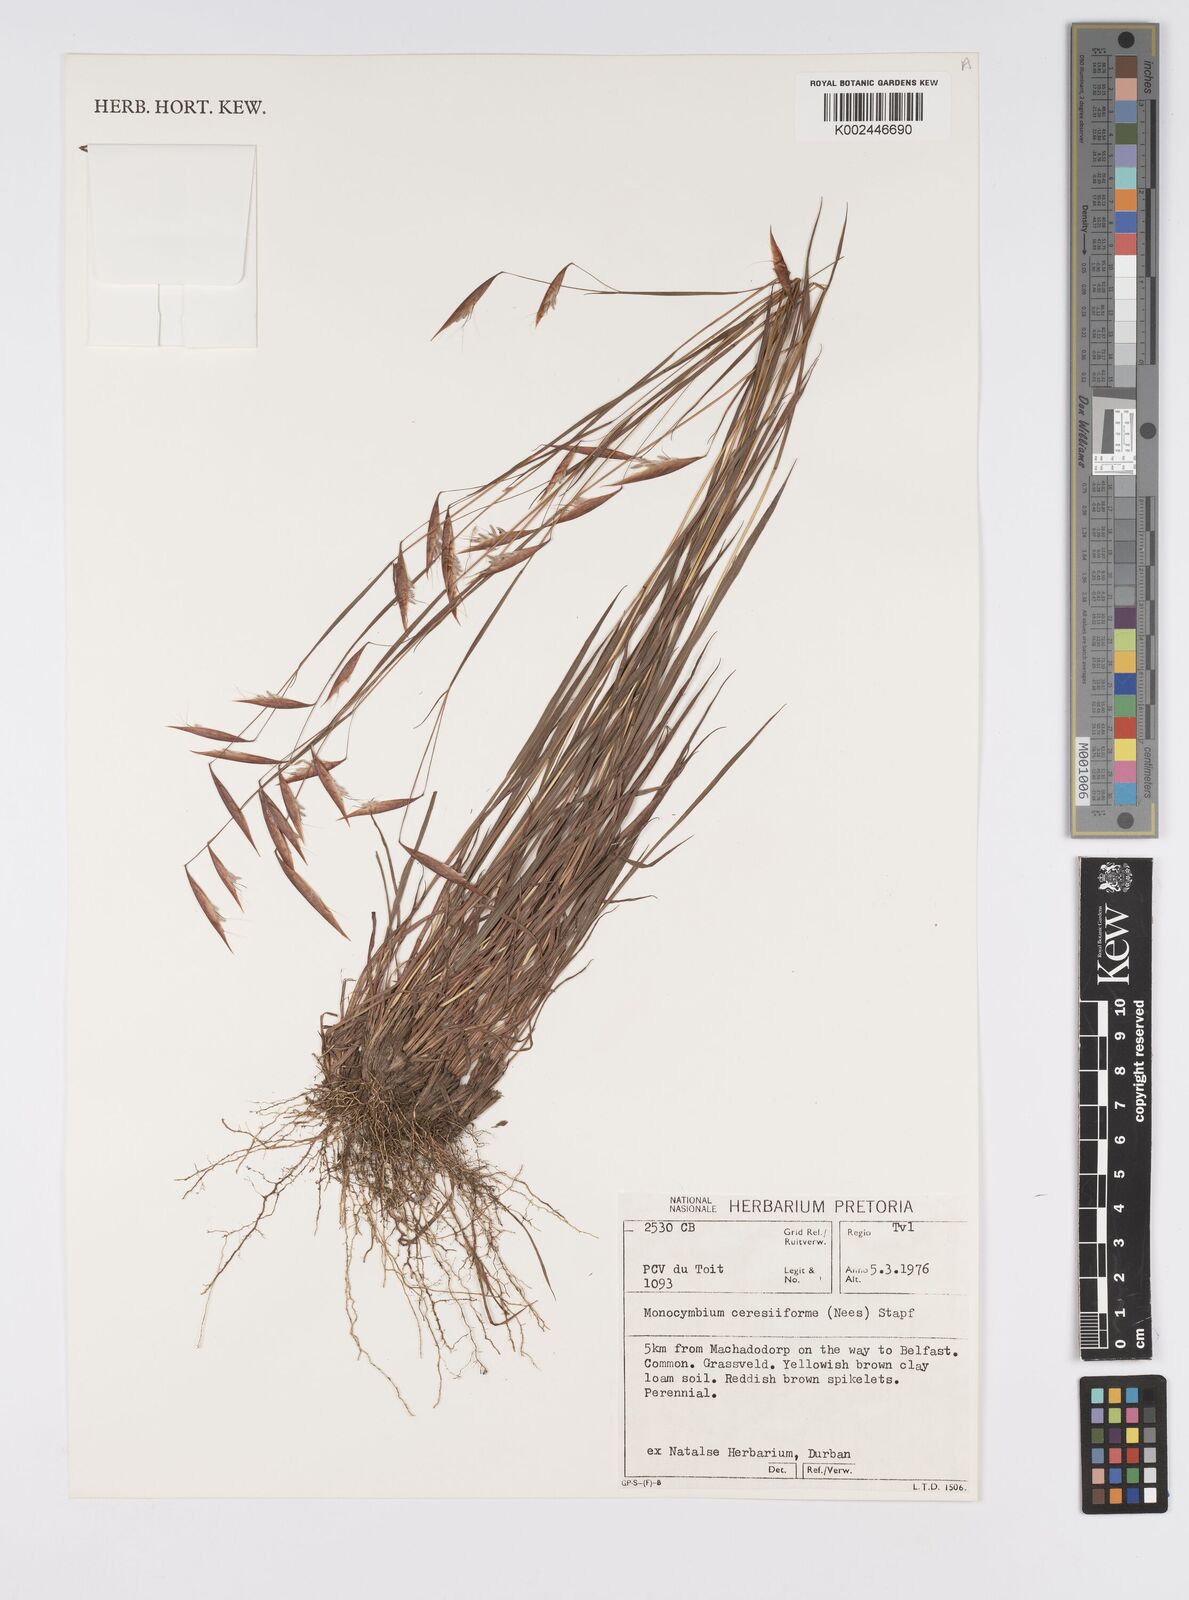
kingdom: Plantae
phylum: Tracheophyta
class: Liliopsida
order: Poales
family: Poaceae
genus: Monocymbium
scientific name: Monocymbium ceresiiforme
